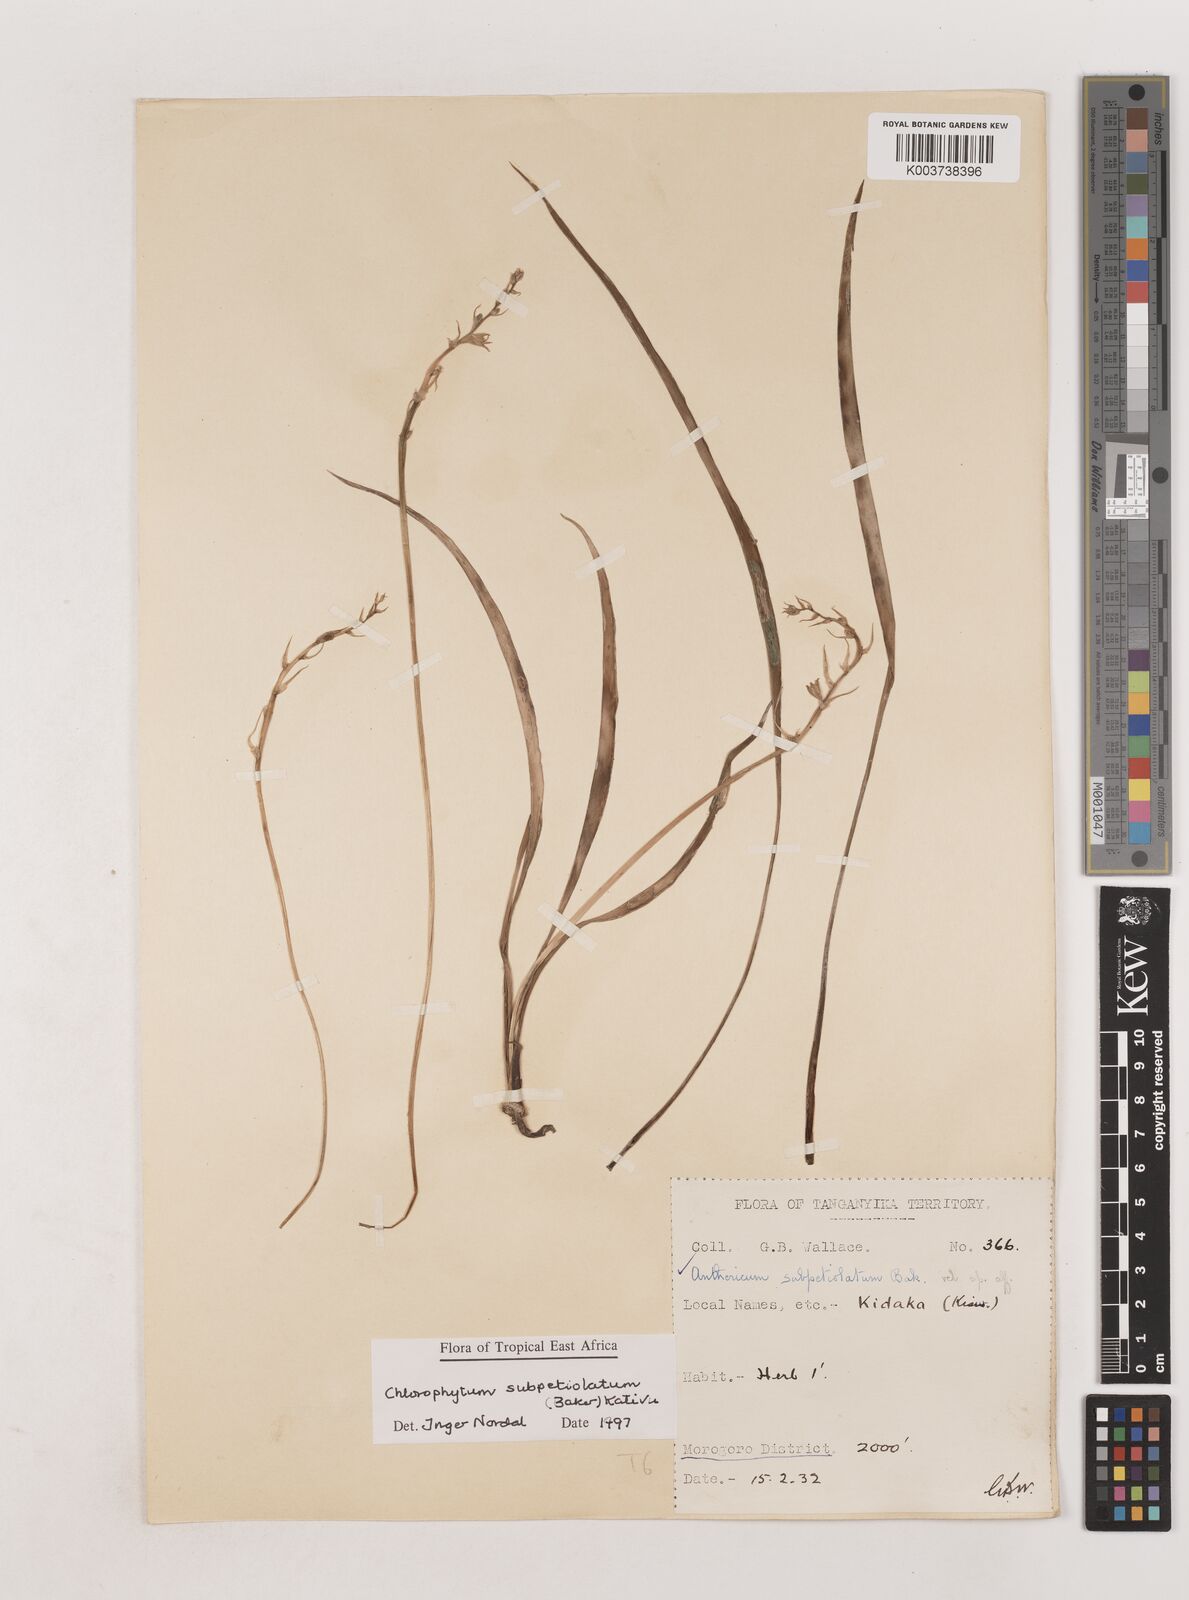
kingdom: Plantae
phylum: Tracheophyta
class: Liliopsida
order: Asparagales
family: Asparagaceae
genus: Chlorophytum
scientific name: Chlorophytum subpetiolatum
